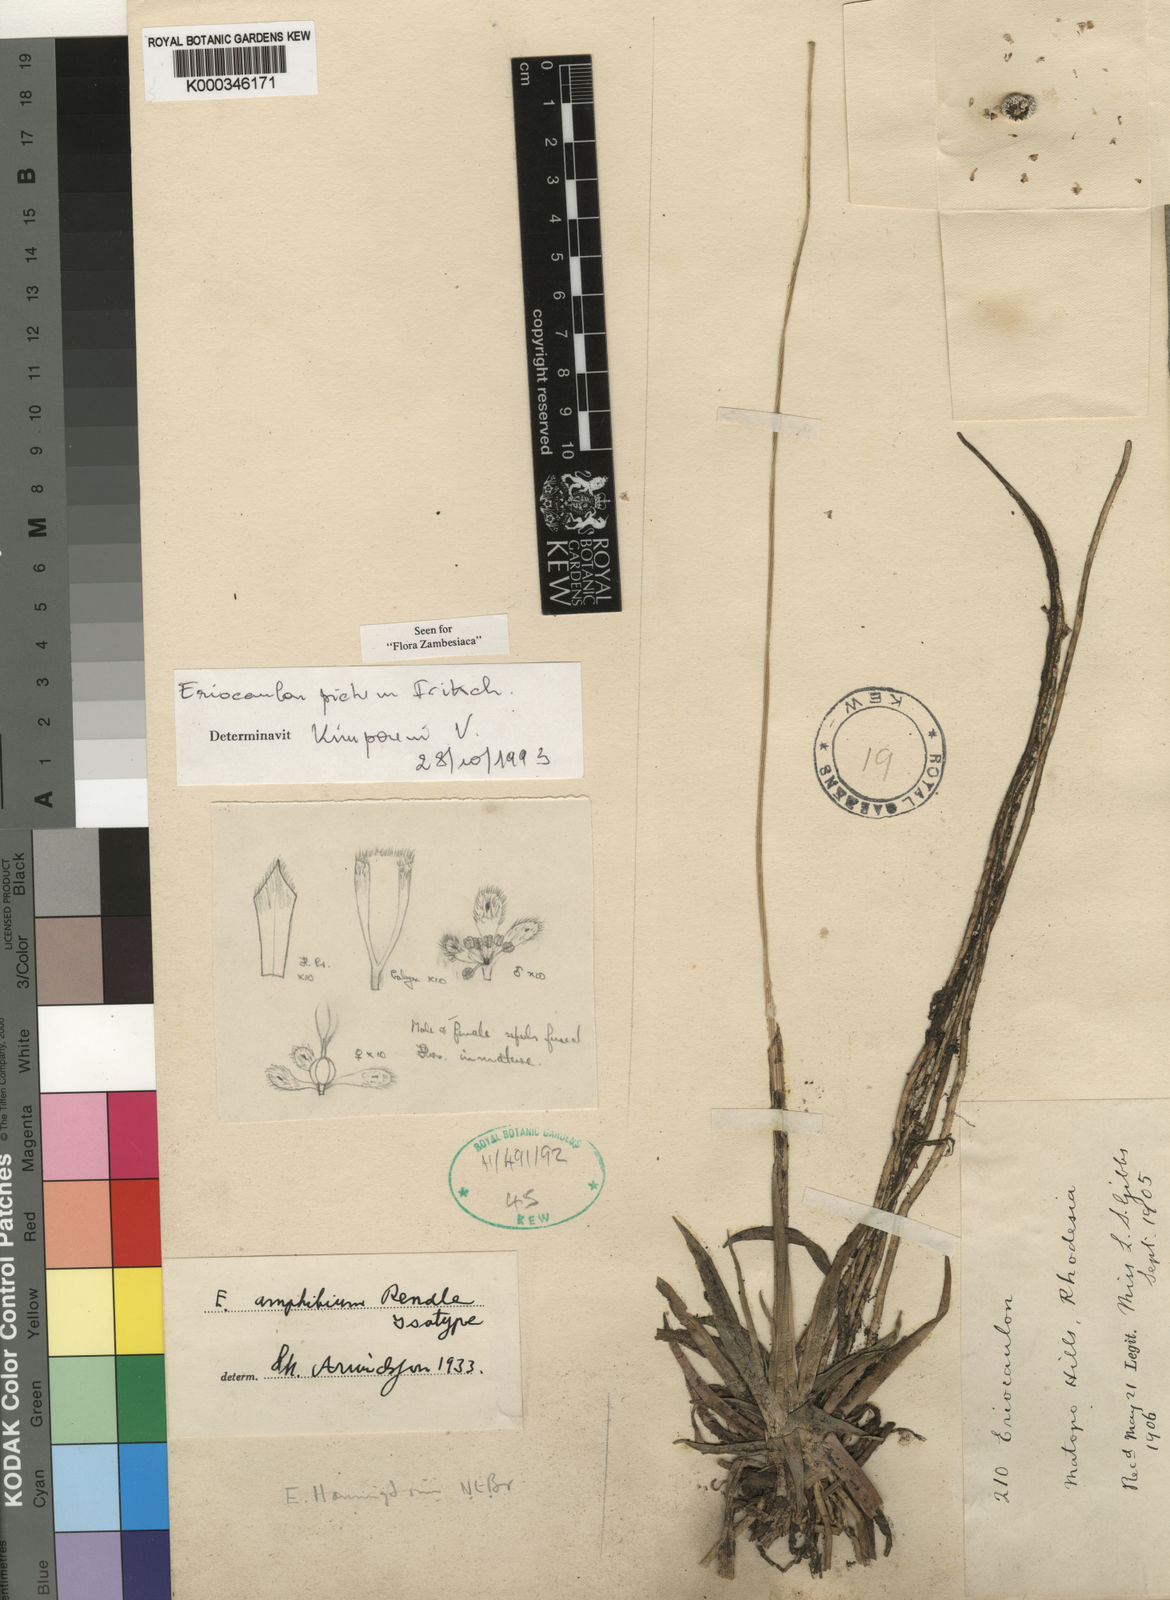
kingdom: Plantae
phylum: Tracheophyta
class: Liliopsida
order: Poales
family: Eriocaulaceae
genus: Eriocaulon
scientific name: Eriocaulon pictum
